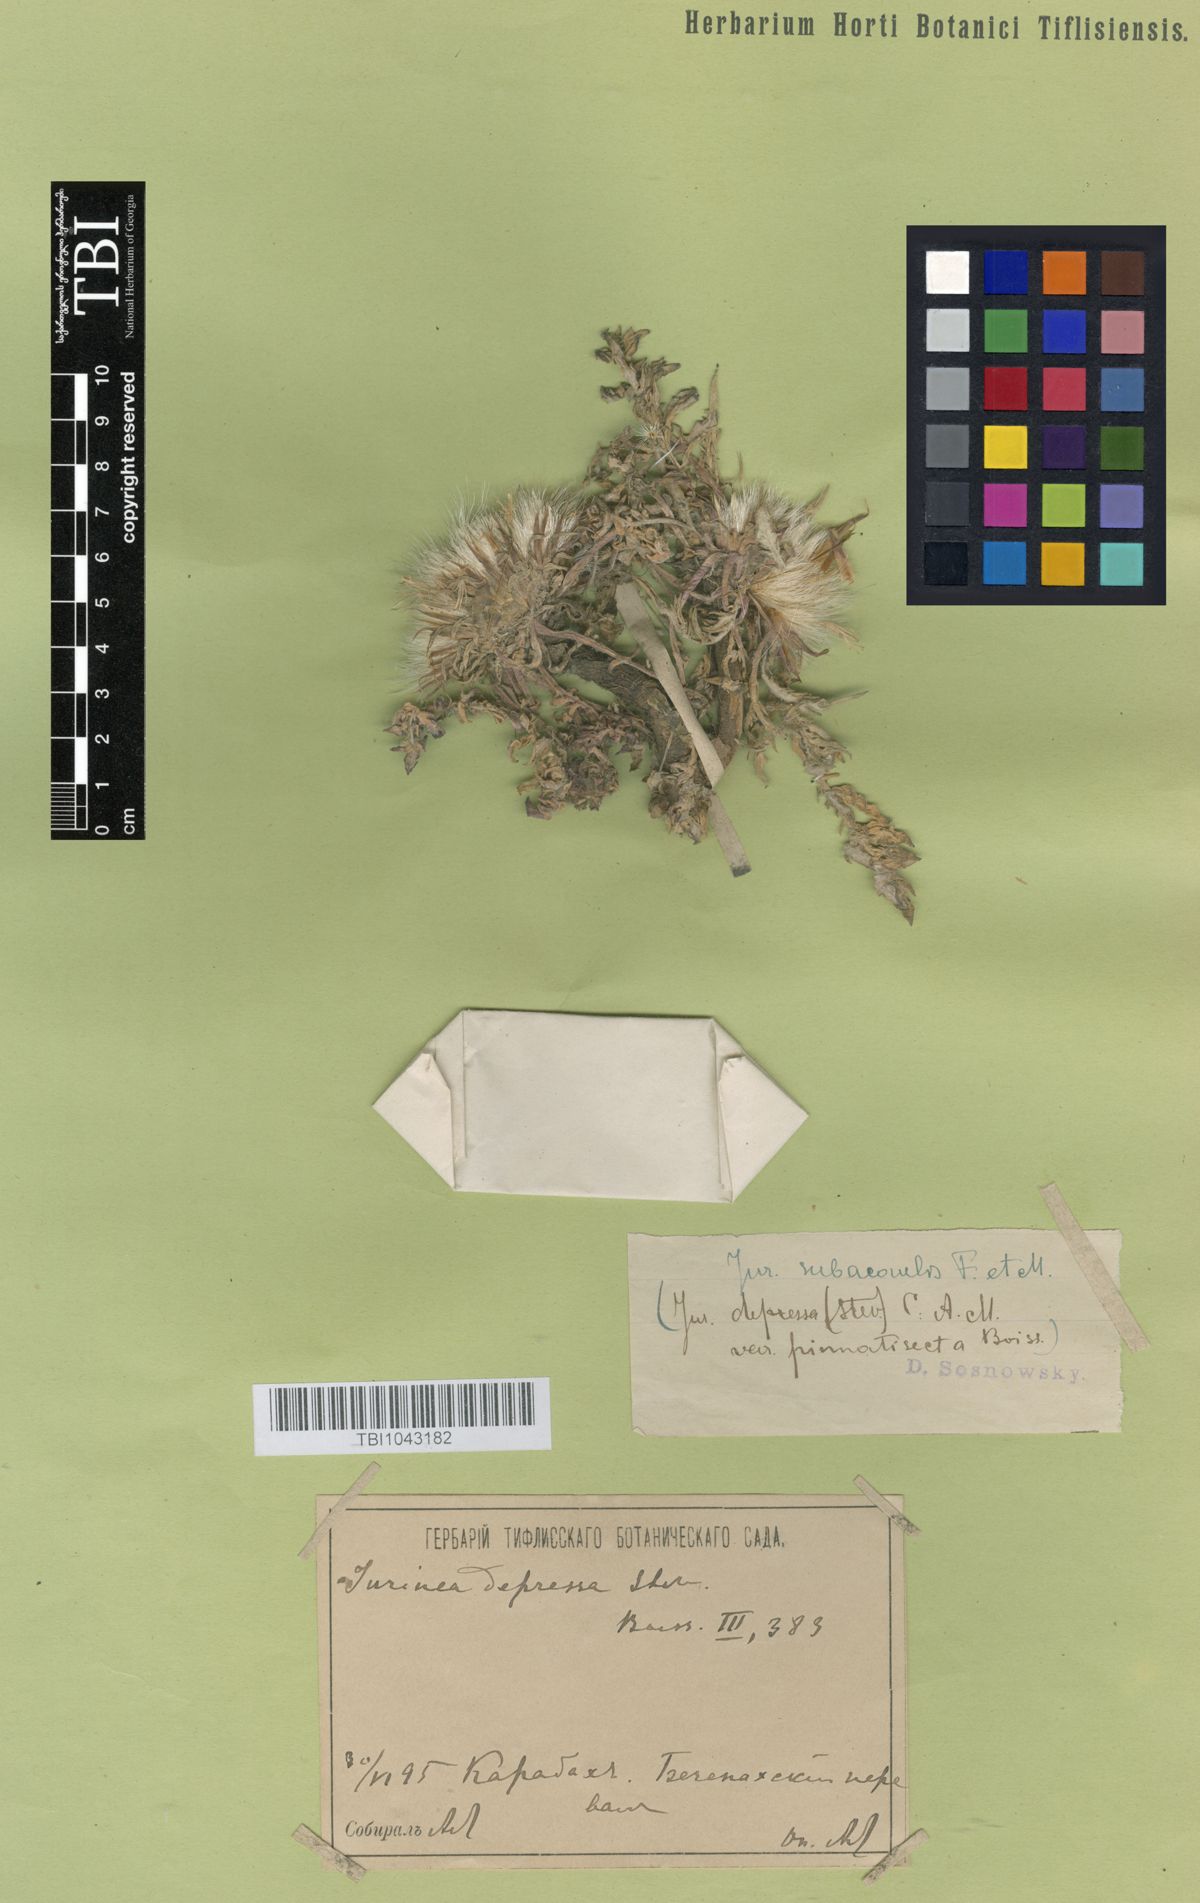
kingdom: Plantae
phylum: Tracheophyta
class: Magnoliopsida
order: Asterales
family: Asteraceae
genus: Jurinea
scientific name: Jurinea moschus
